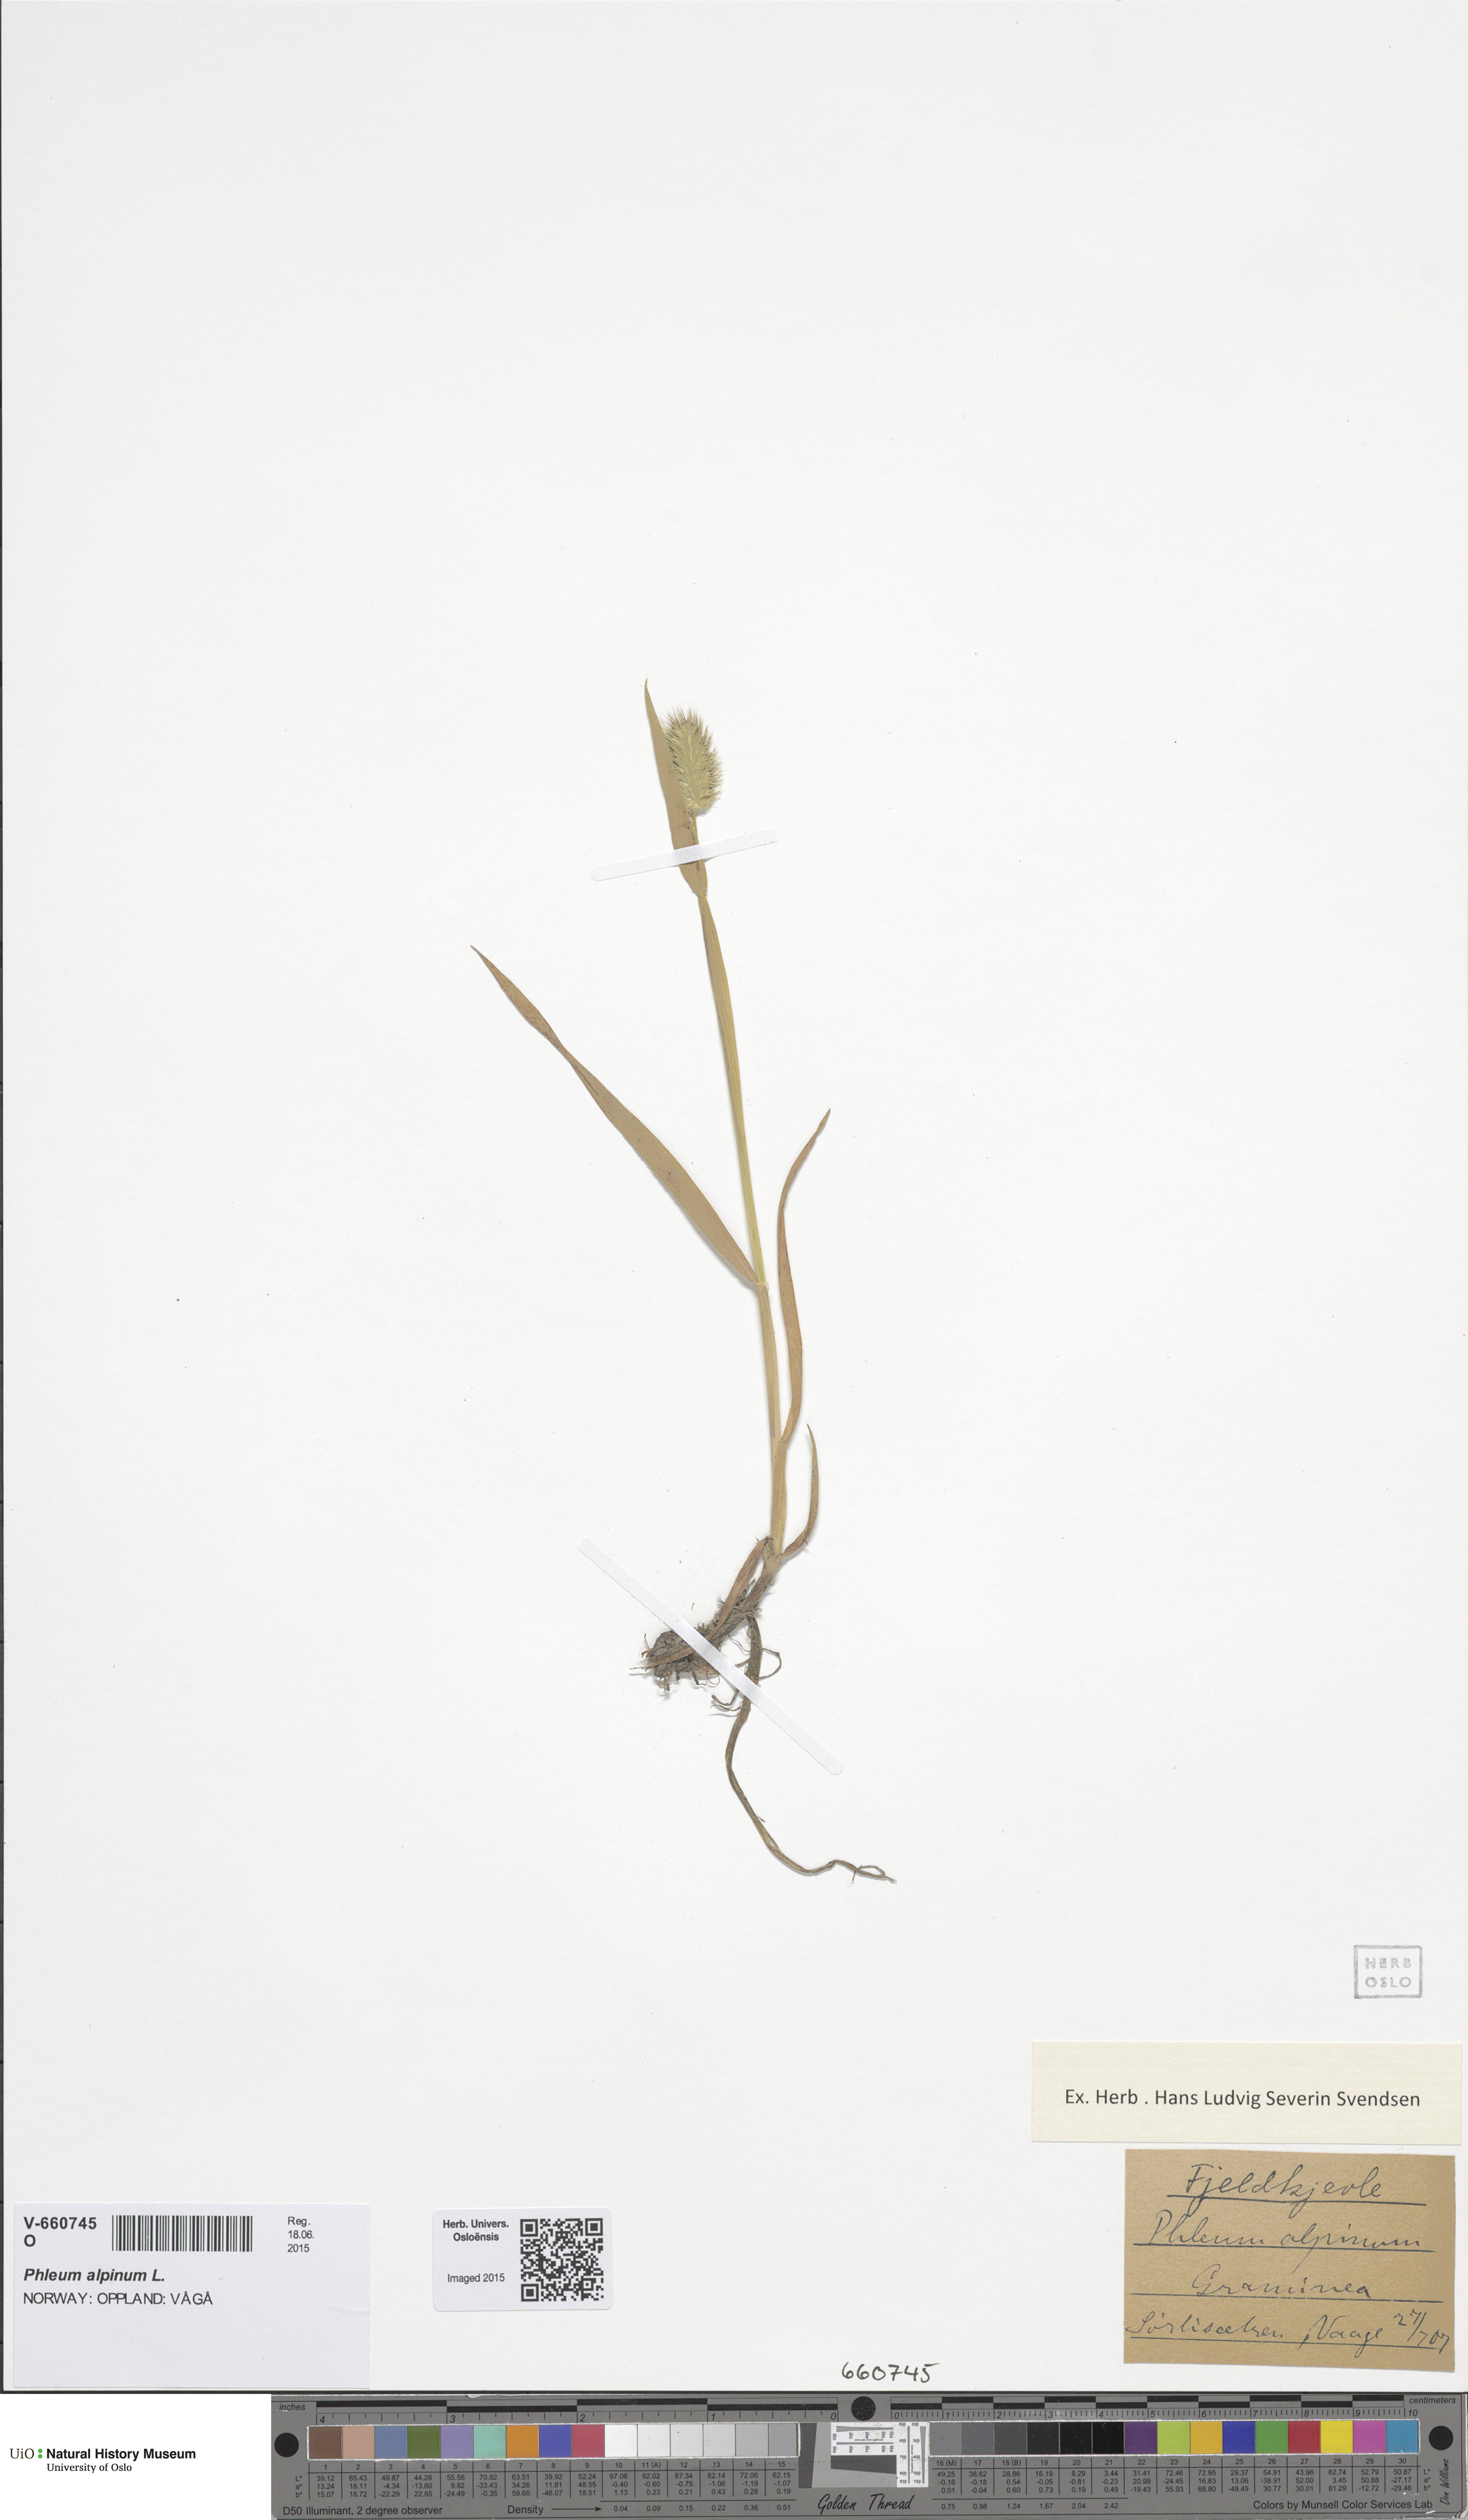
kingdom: Plantae
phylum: Tracheophyta
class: Liliopsida
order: Poales
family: Poaceae
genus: Phleum
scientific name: Phleum alpinum
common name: Alpine cat's-tail
